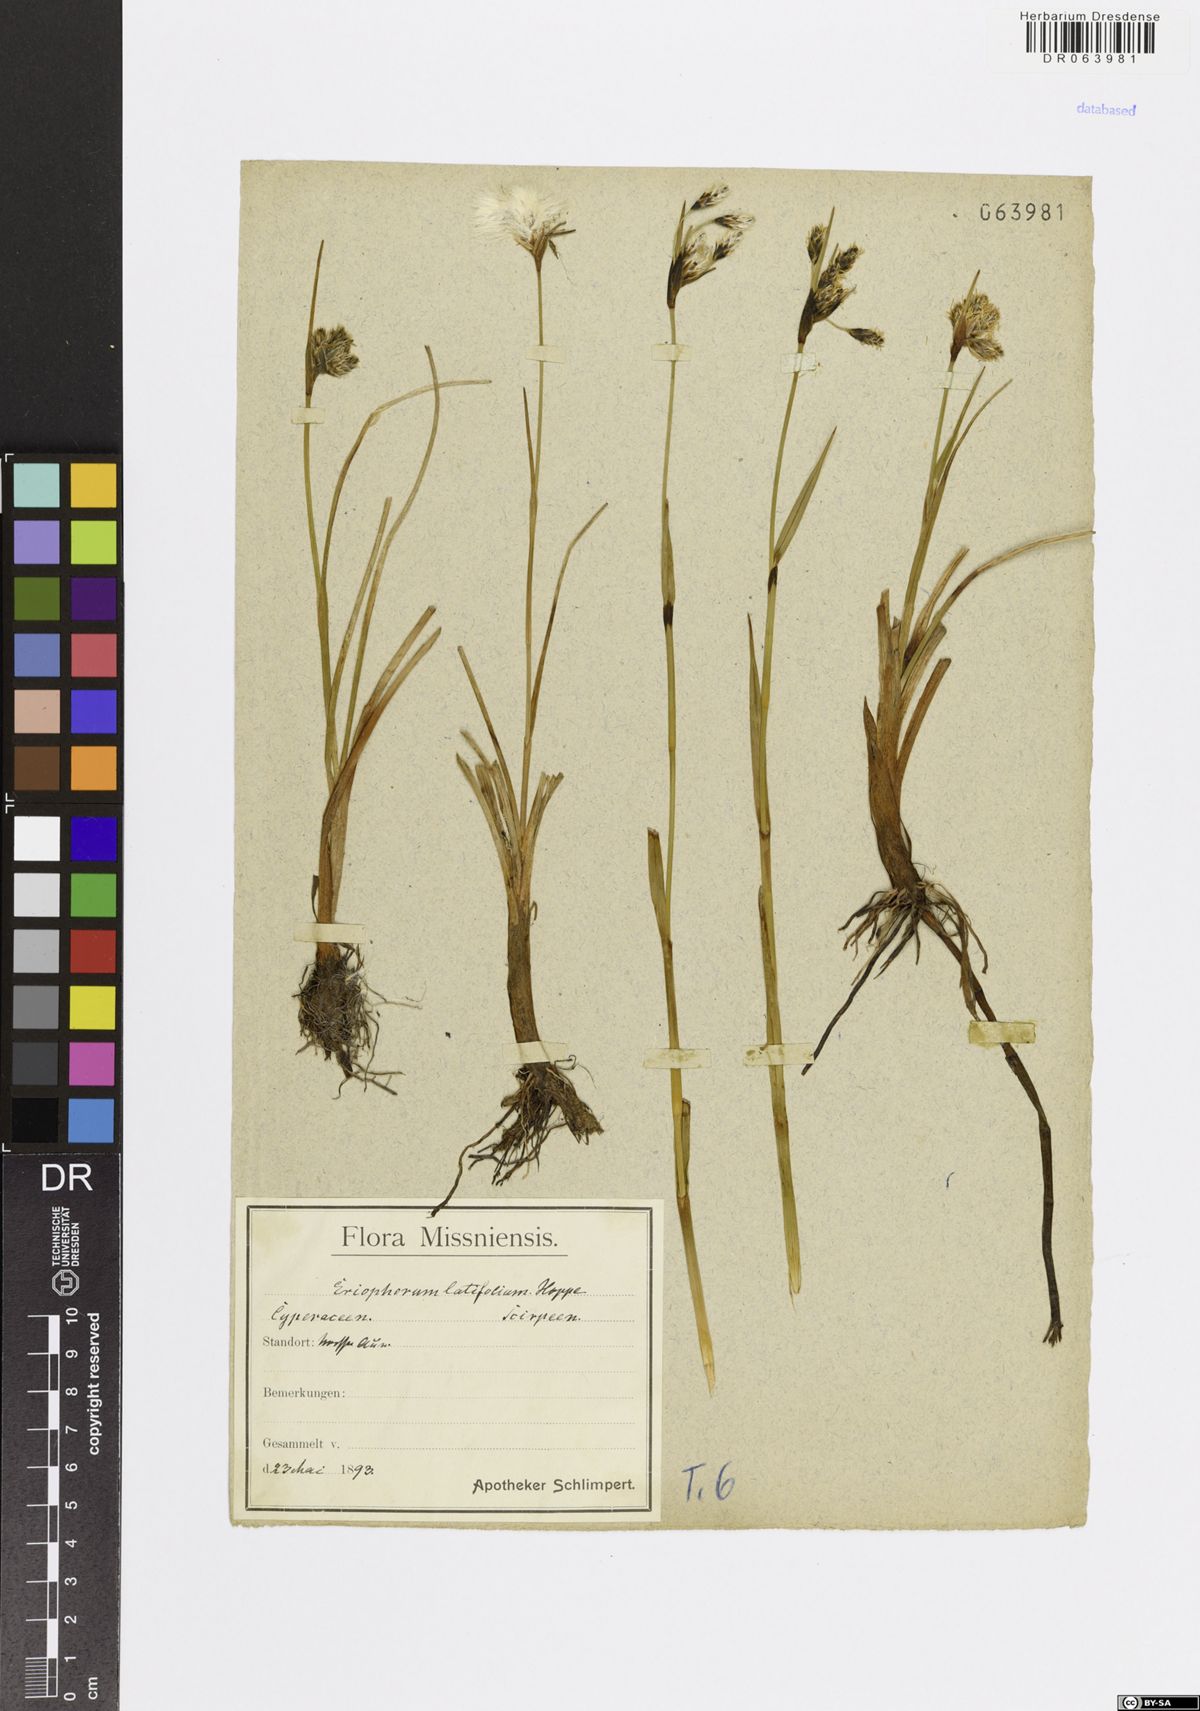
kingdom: Plantae
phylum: Tracheophyta
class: Liliopsida
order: Poales
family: Cyperaceae
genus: Eriophorum
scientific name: Eriophorum latifolium
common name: Broad-leaved cottongrass
